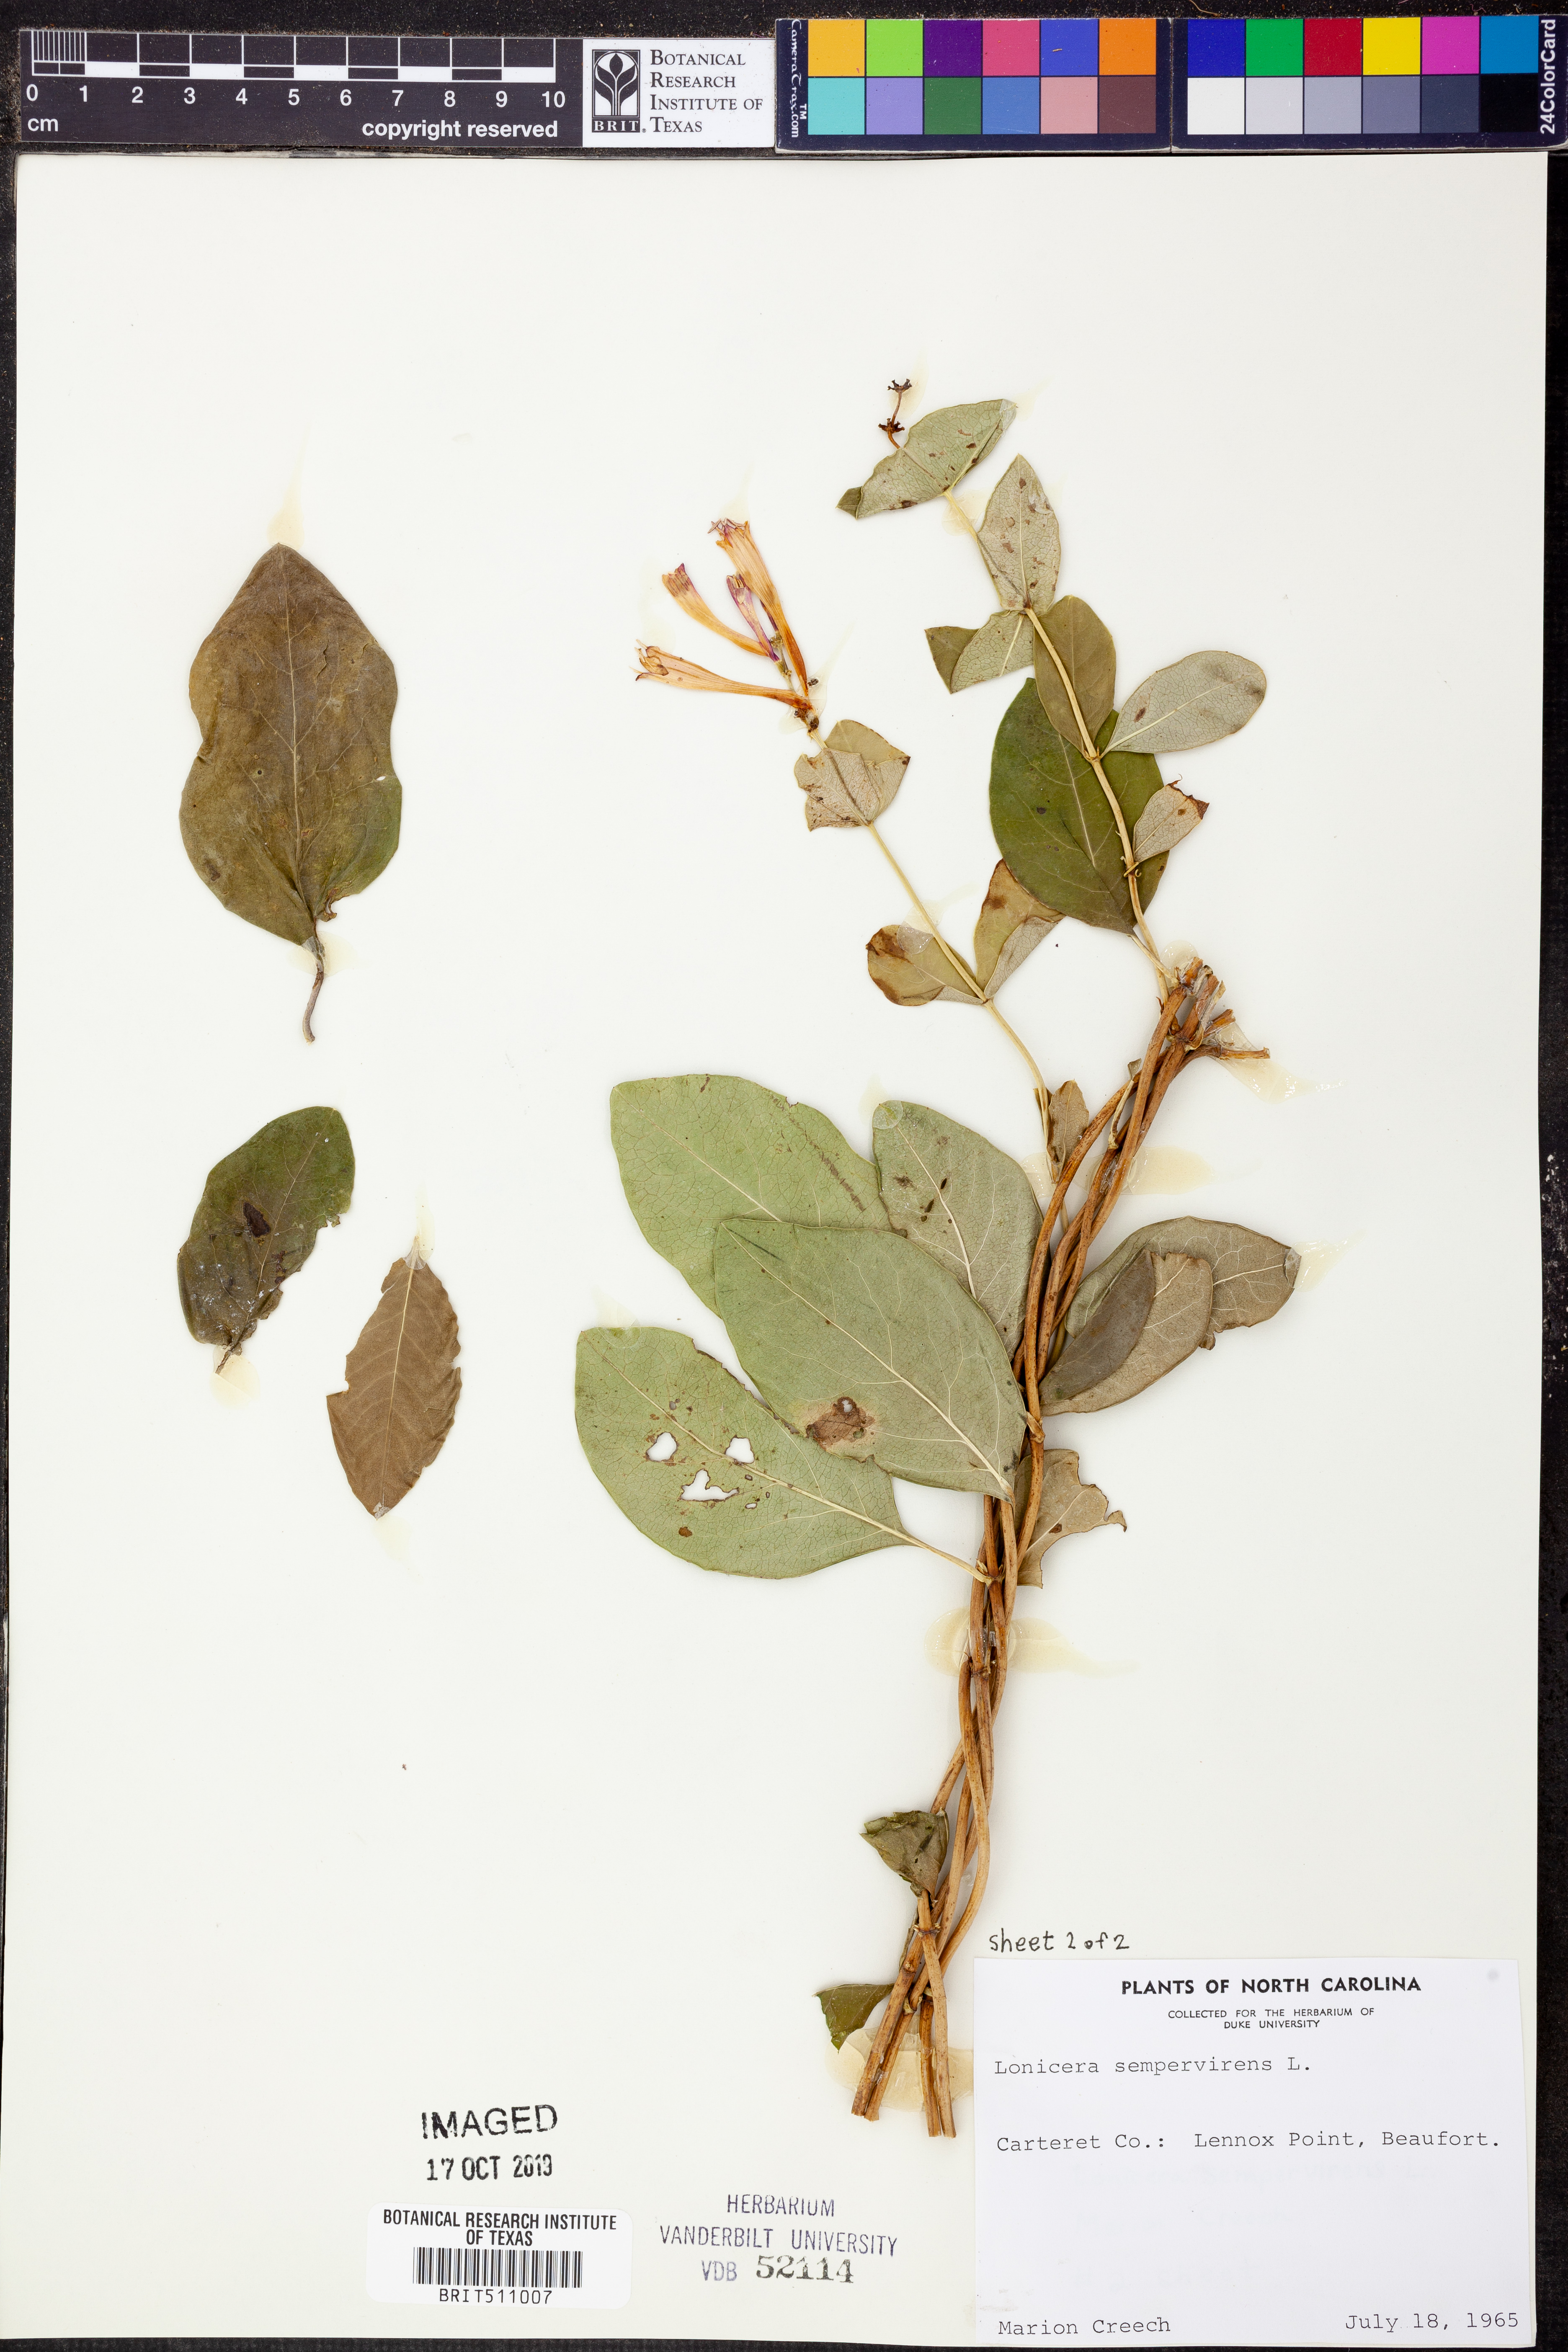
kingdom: Plantae
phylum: Tracheophyta
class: Magnoliopsida
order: Dipsacales
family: Caprifoliaceae
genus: Lonicera
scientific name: Lonicera sempervirens
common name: Coral honeysuckle
